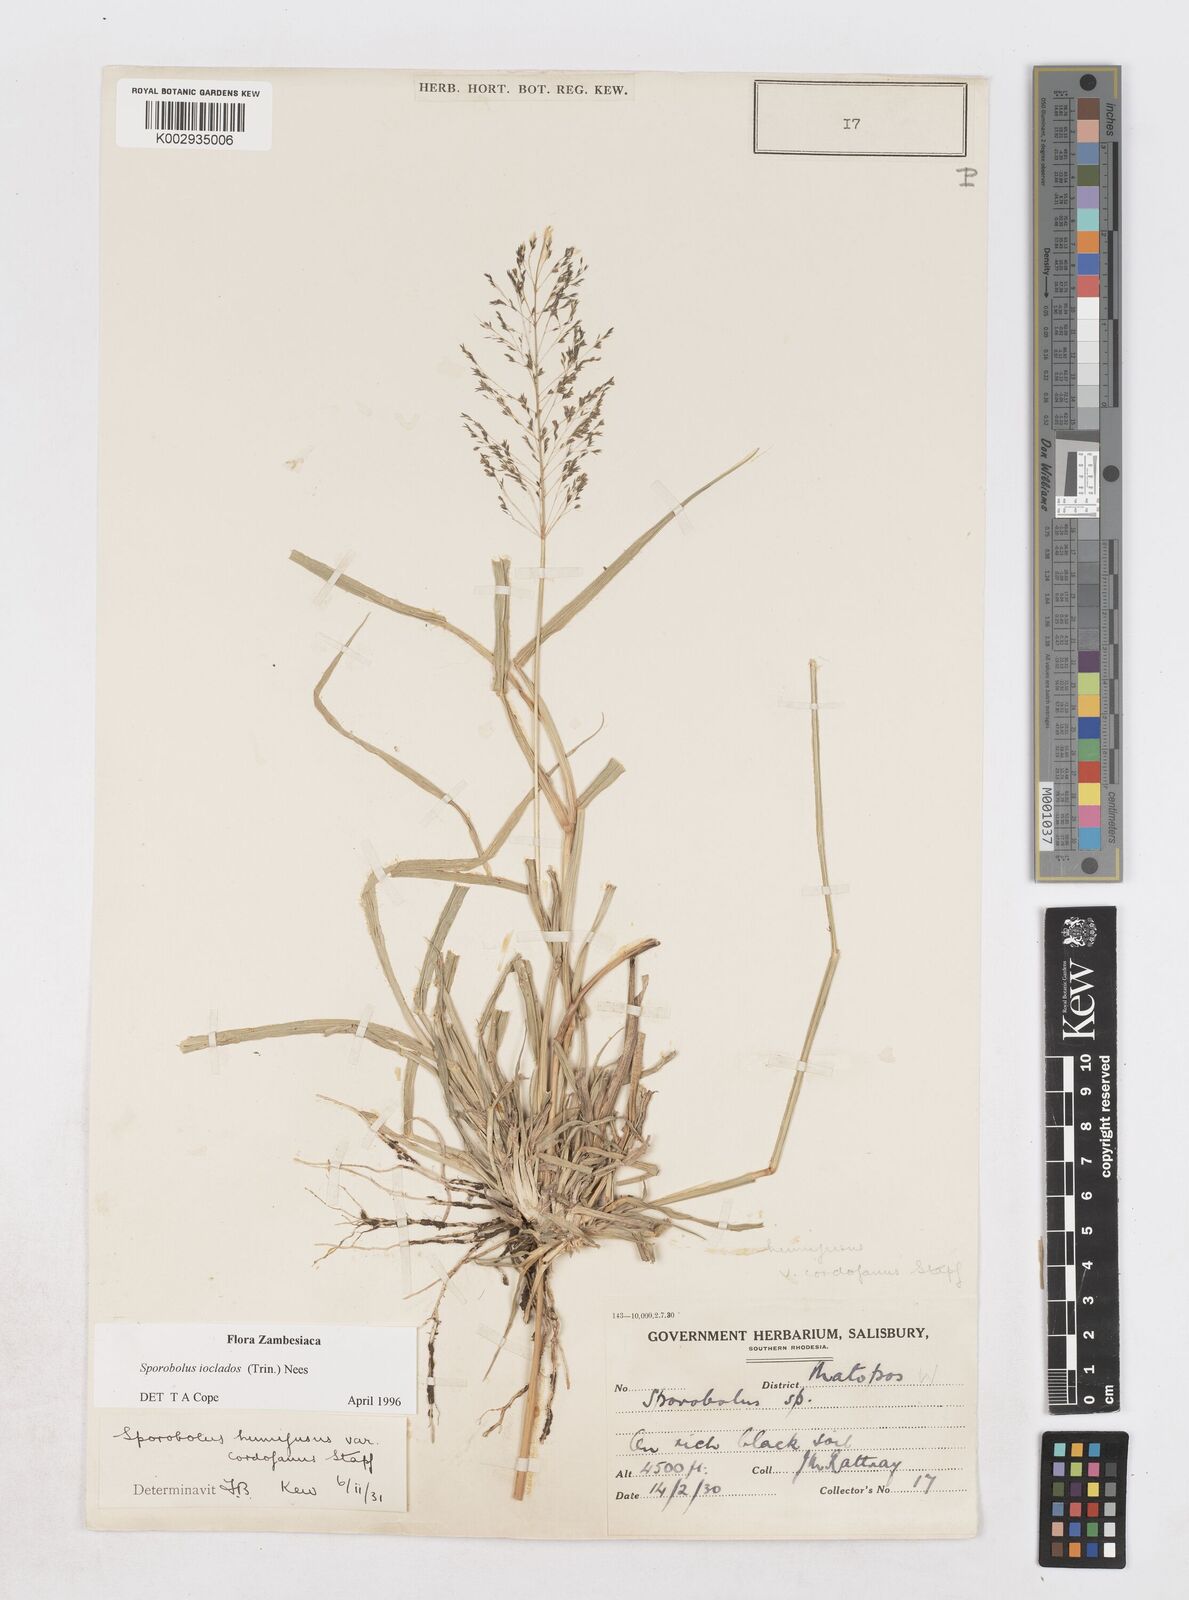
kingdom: Plantae
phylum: Tracheophyta
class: Liliopsida
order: Poales
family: Poaceae
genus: Sporobolus
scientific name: Sporobolus ioclados
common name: Pan dropseed
